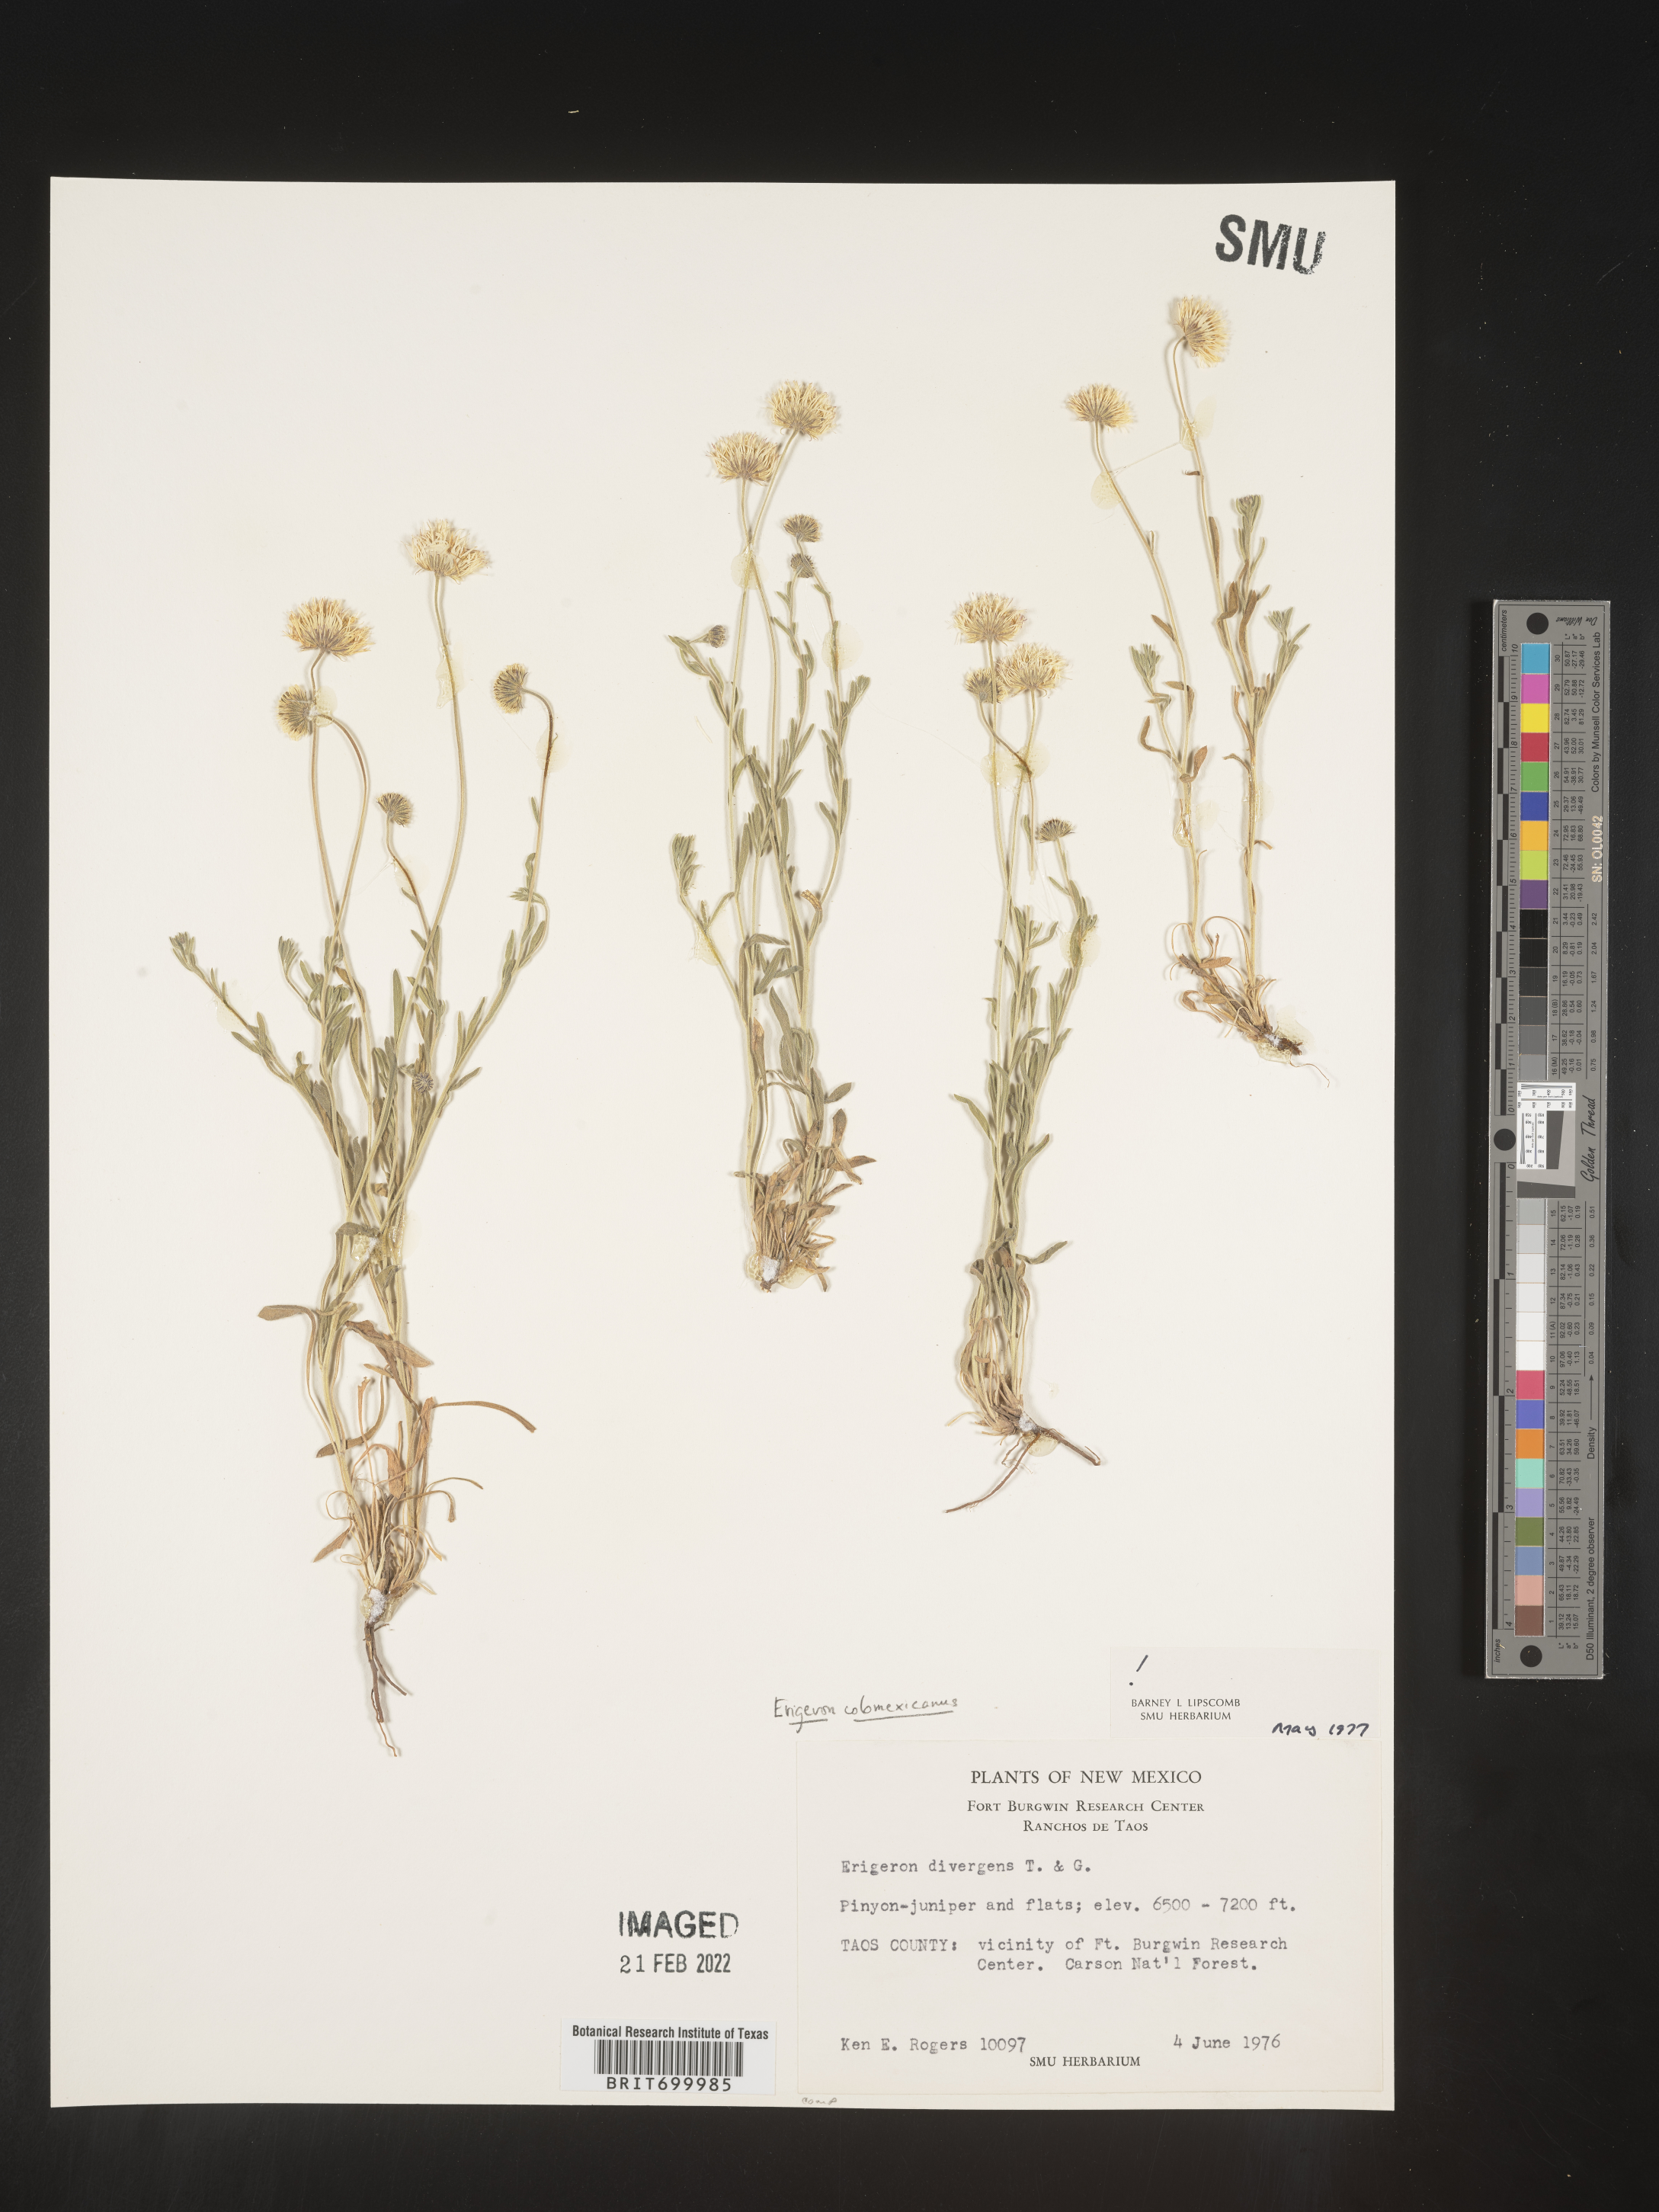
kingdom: Plantae
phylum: Tracheophyta
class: Magnoliopsida
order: Asterales
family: Asteraceae
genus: Erigeron
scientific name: Erigeron tracyi
